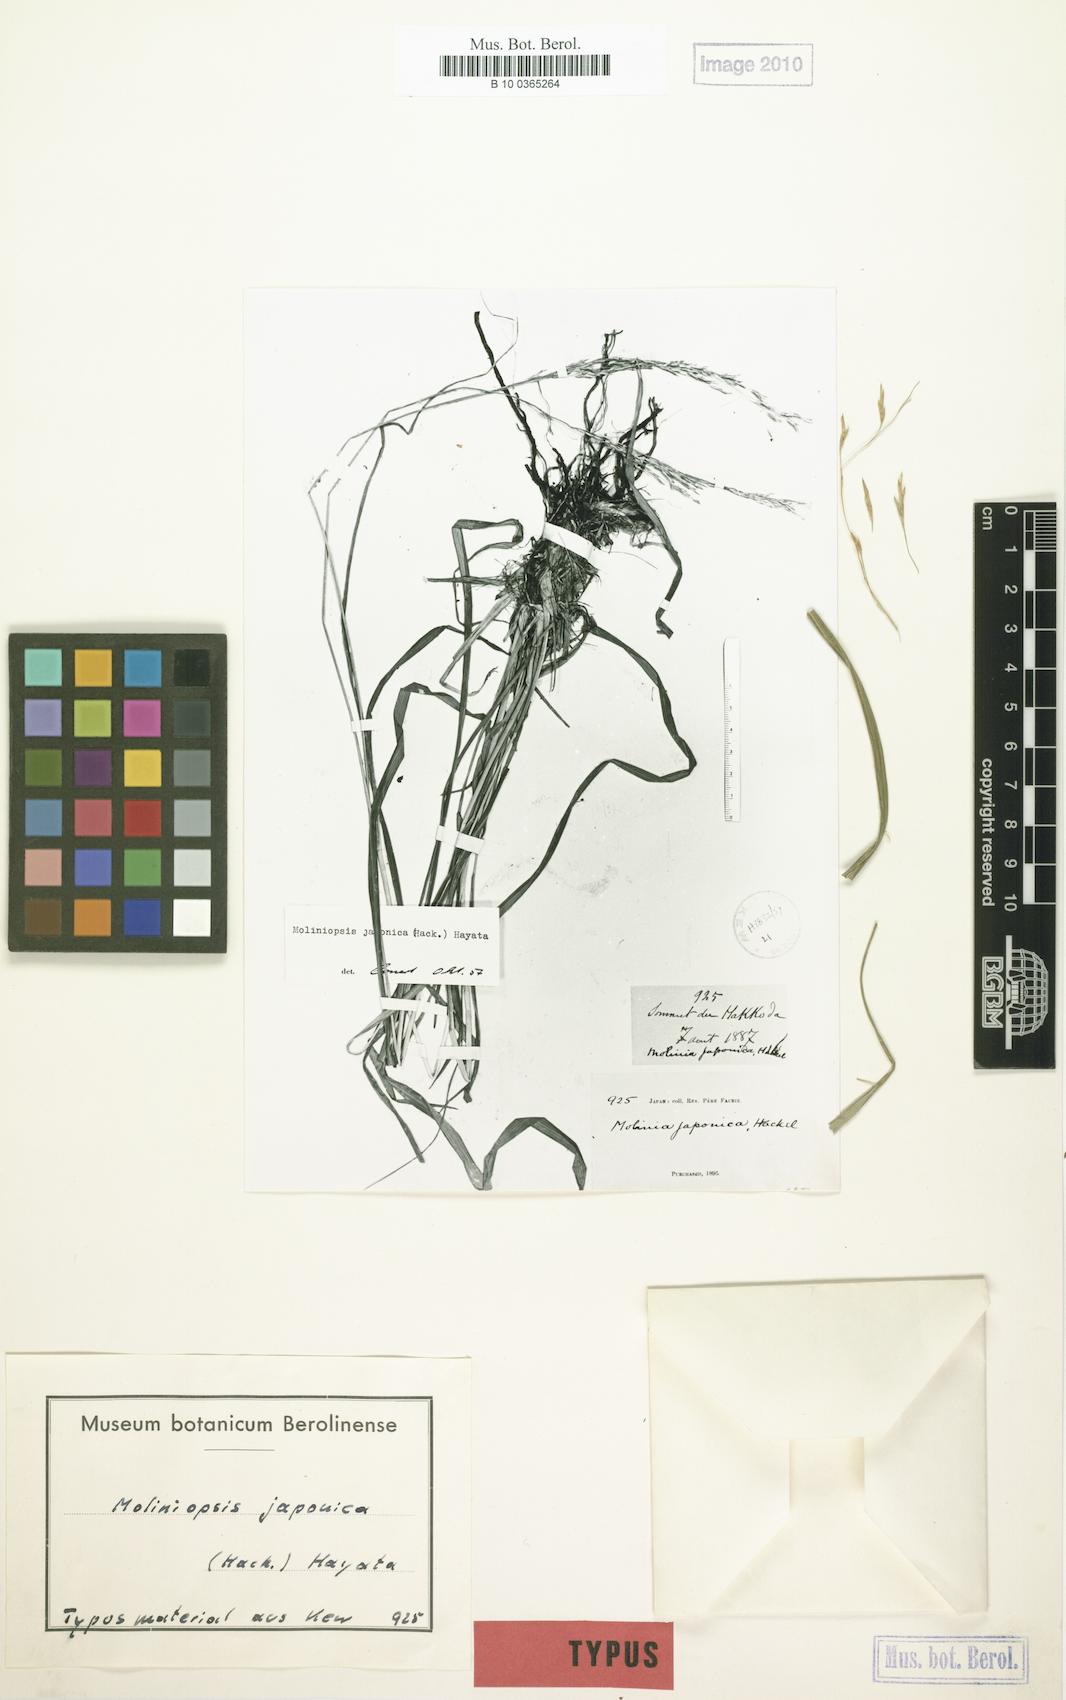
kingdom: Plantae
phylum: Tracheophyta
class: Liliopsida
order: Poales
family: Poaceae
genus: Moliniopsis
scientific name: Moliniopsis japonica
